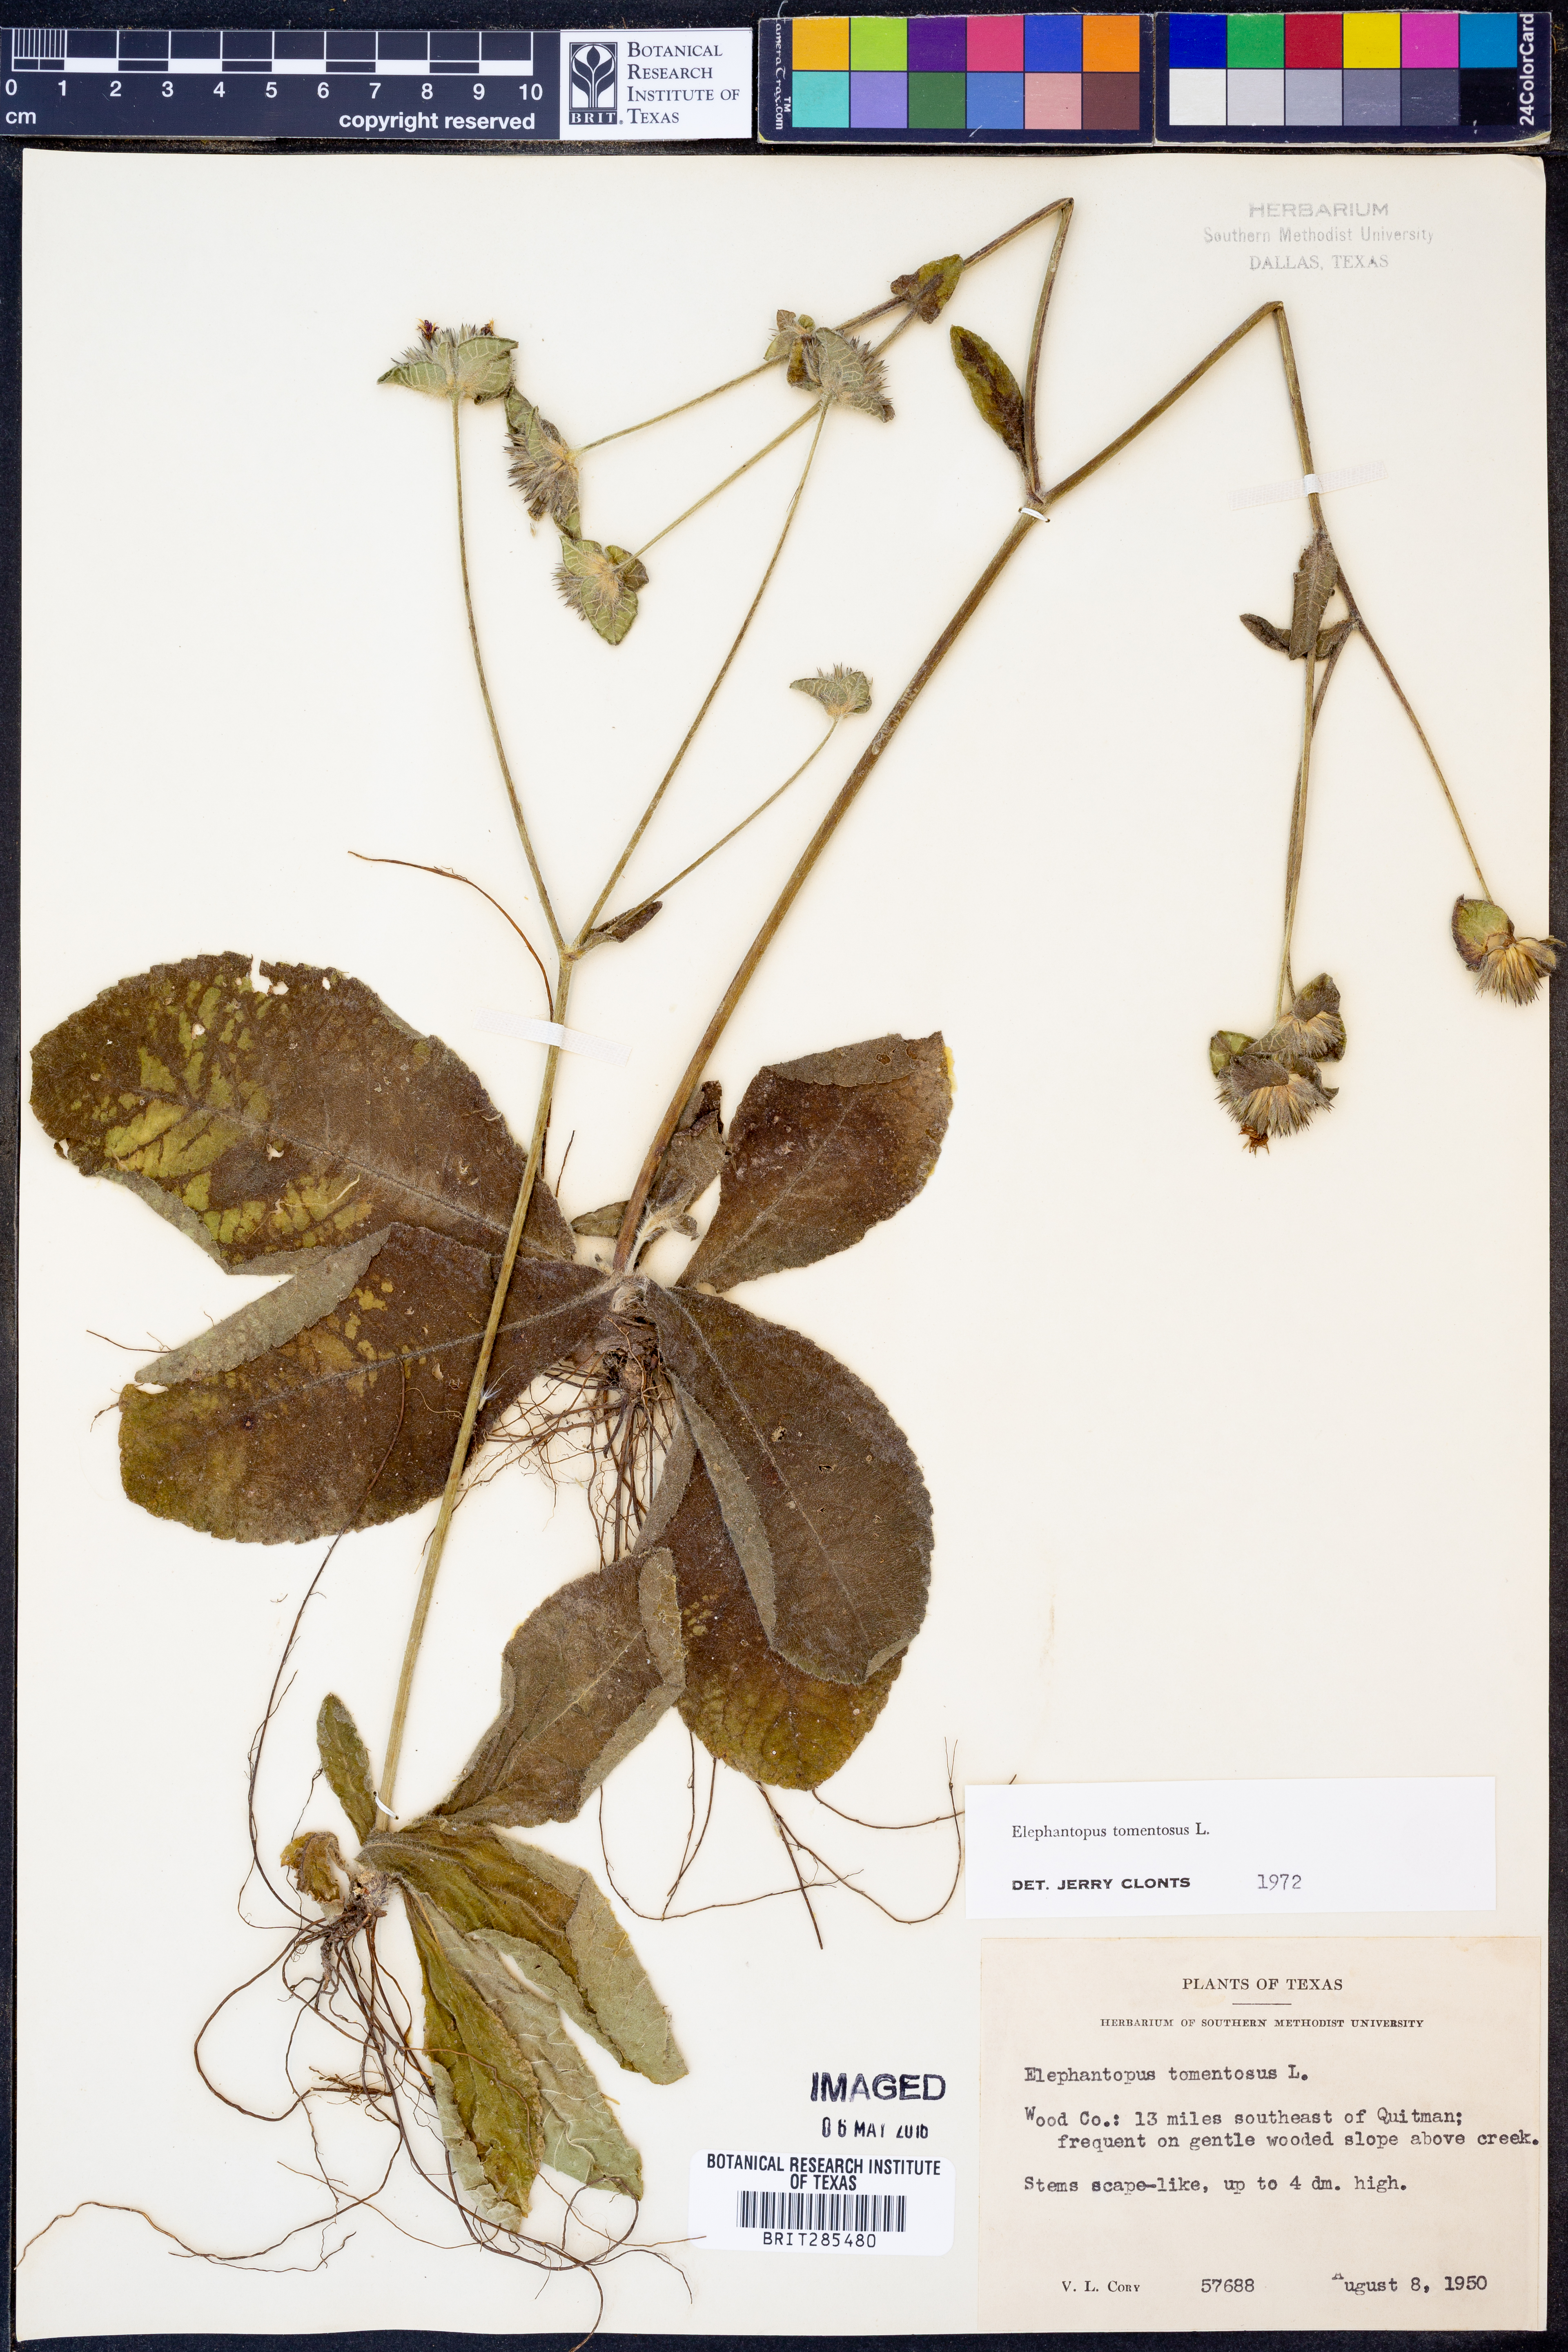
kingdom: Plantae
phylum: Tracheophyta
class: Magnoliopsida
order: Asterales
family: Asteraceae
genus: Elephantopus
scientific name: Elephantopus tomentosus
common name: Tobacco-weed
